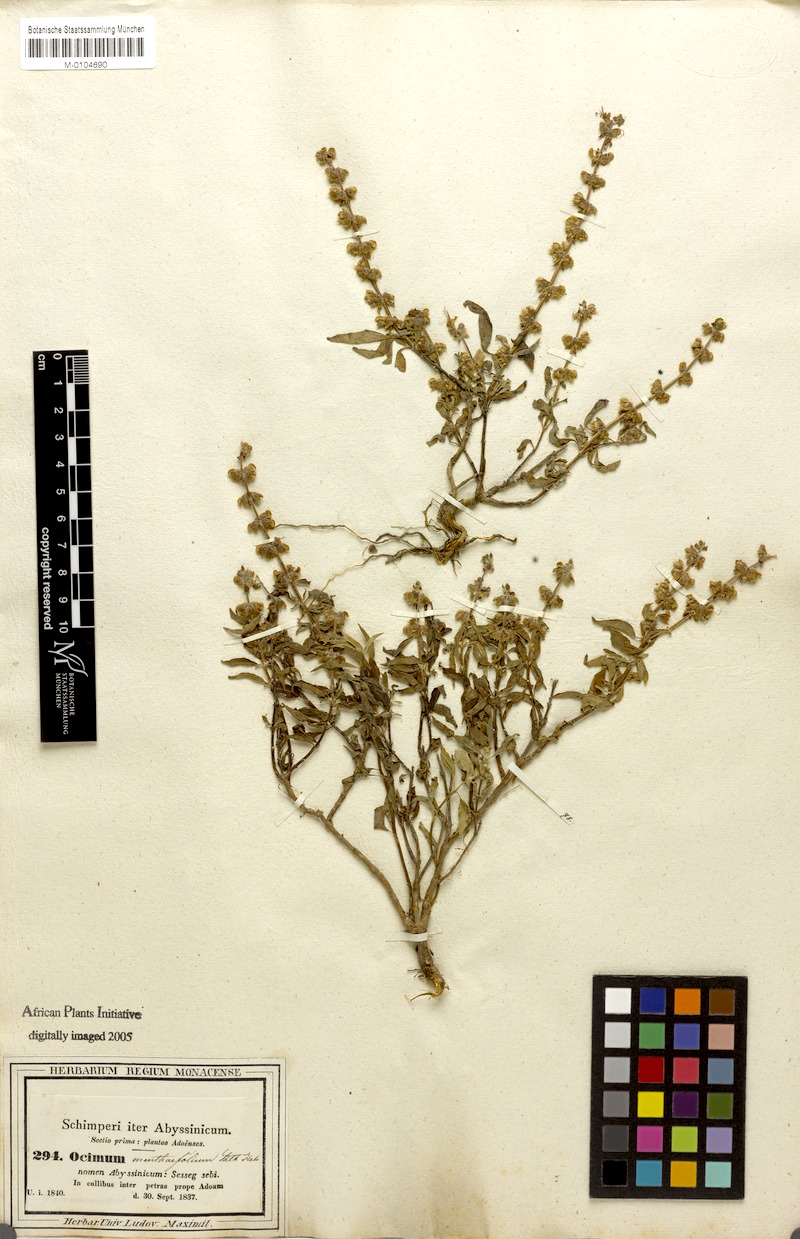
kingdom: Plantae
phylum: Tracheophyta
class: Magnoliopsida
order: Lamiales
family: Lamiaceae
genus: Ocimum
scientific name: Ocimum forskoelei
